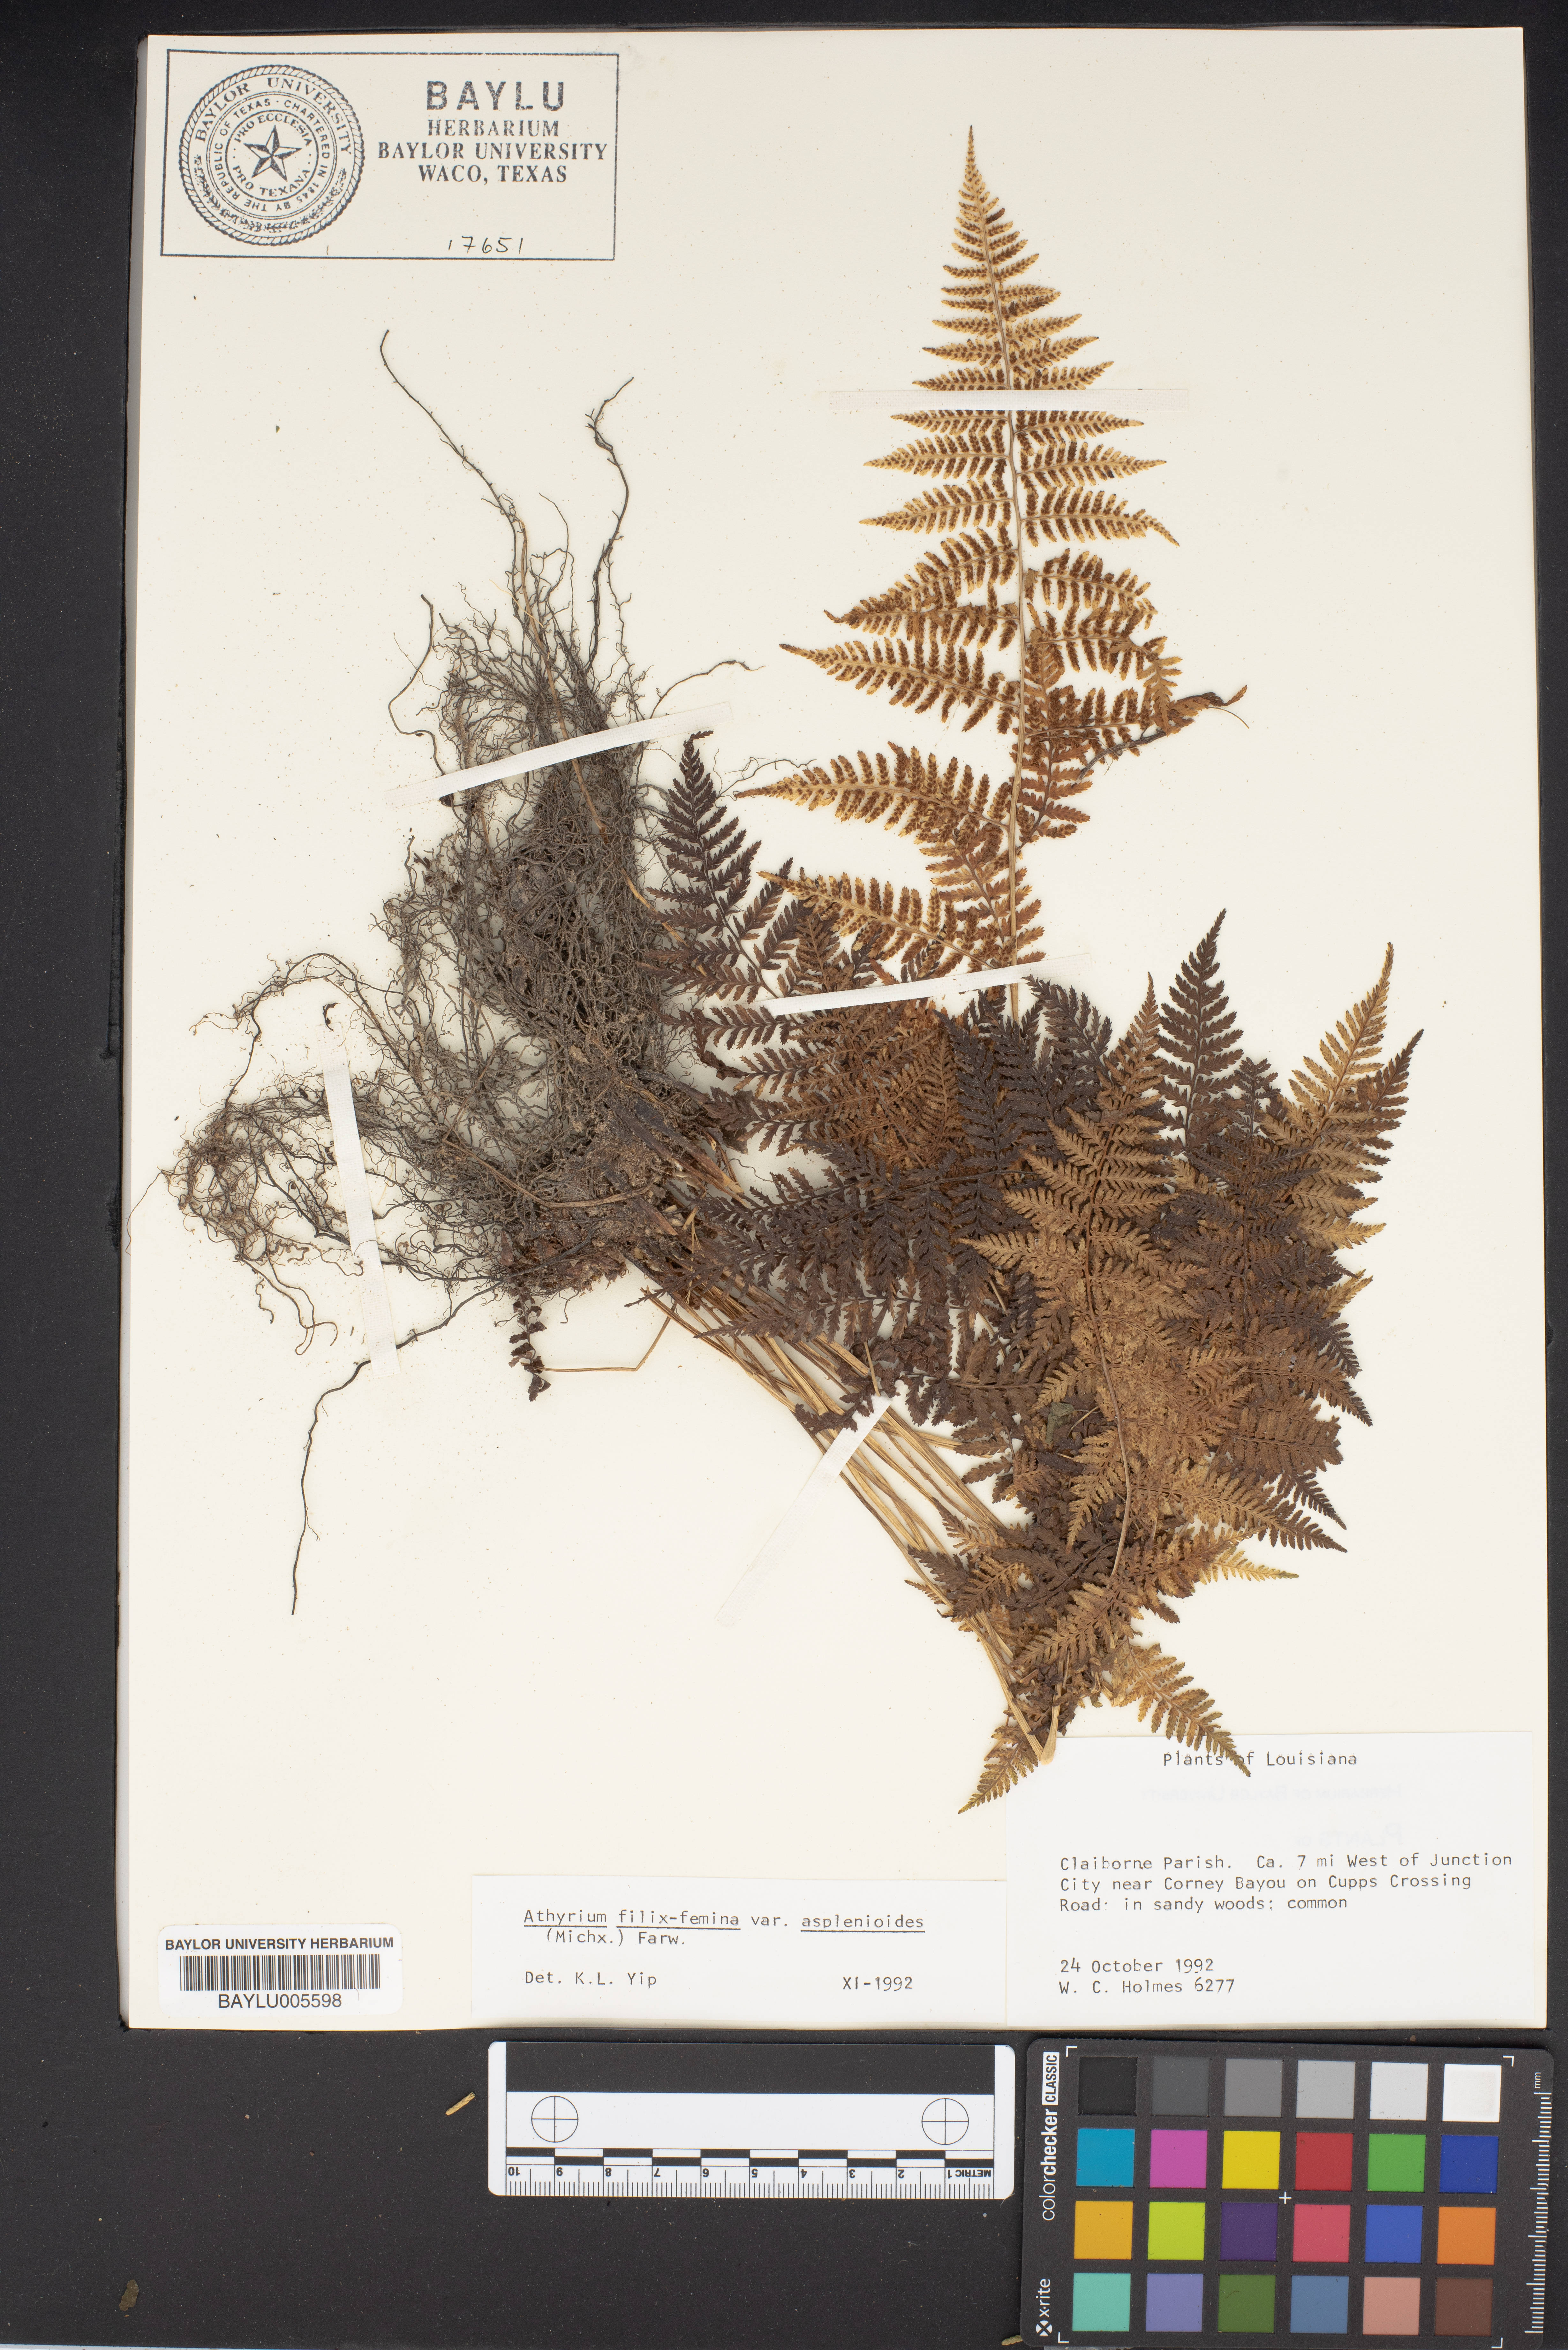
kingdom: Plantae
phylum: Tracheophyta
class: Polypodiopsida
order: Polypodiales
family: Athyriaceae
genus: Athyrium
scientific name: Athyrium asplenioides
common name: Southern lady fern
